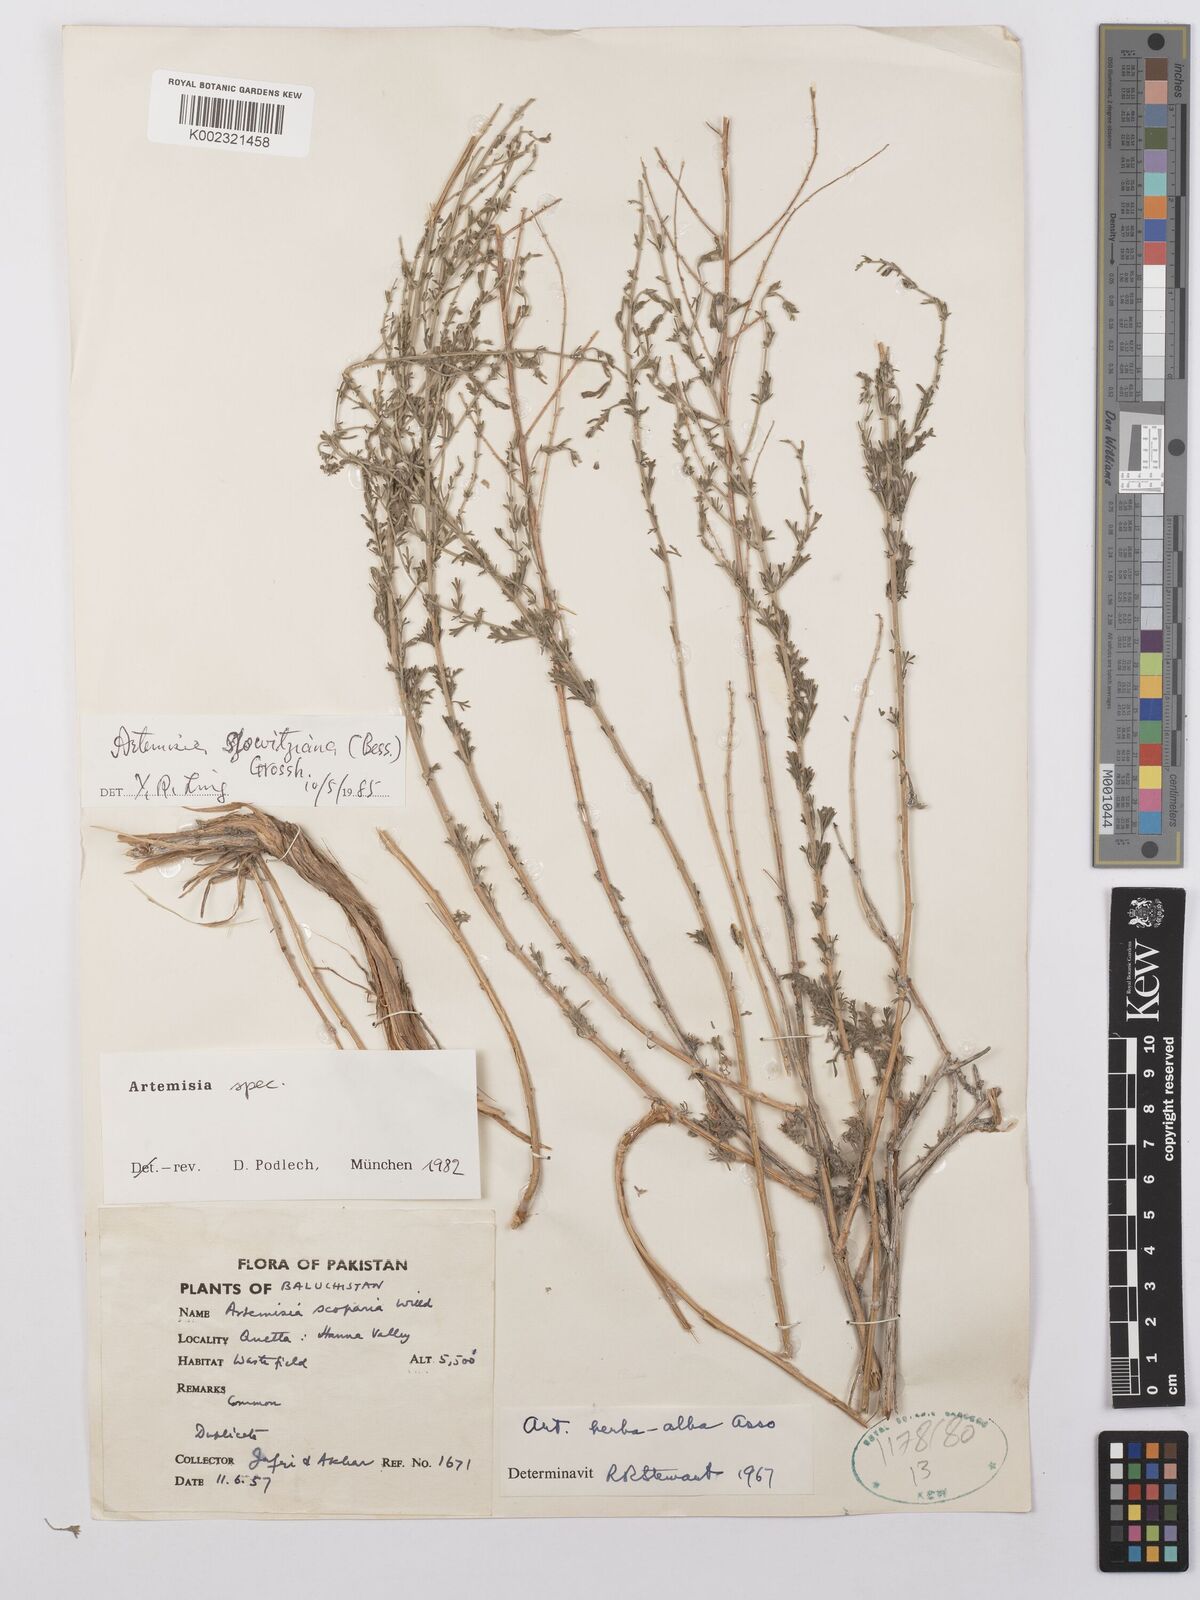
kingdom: Plantae
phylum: Tracheophyta
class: Magnoliopsida
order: Asterales
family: Asteraceae
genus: Artemisia
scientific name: Artemisia szowitziana
